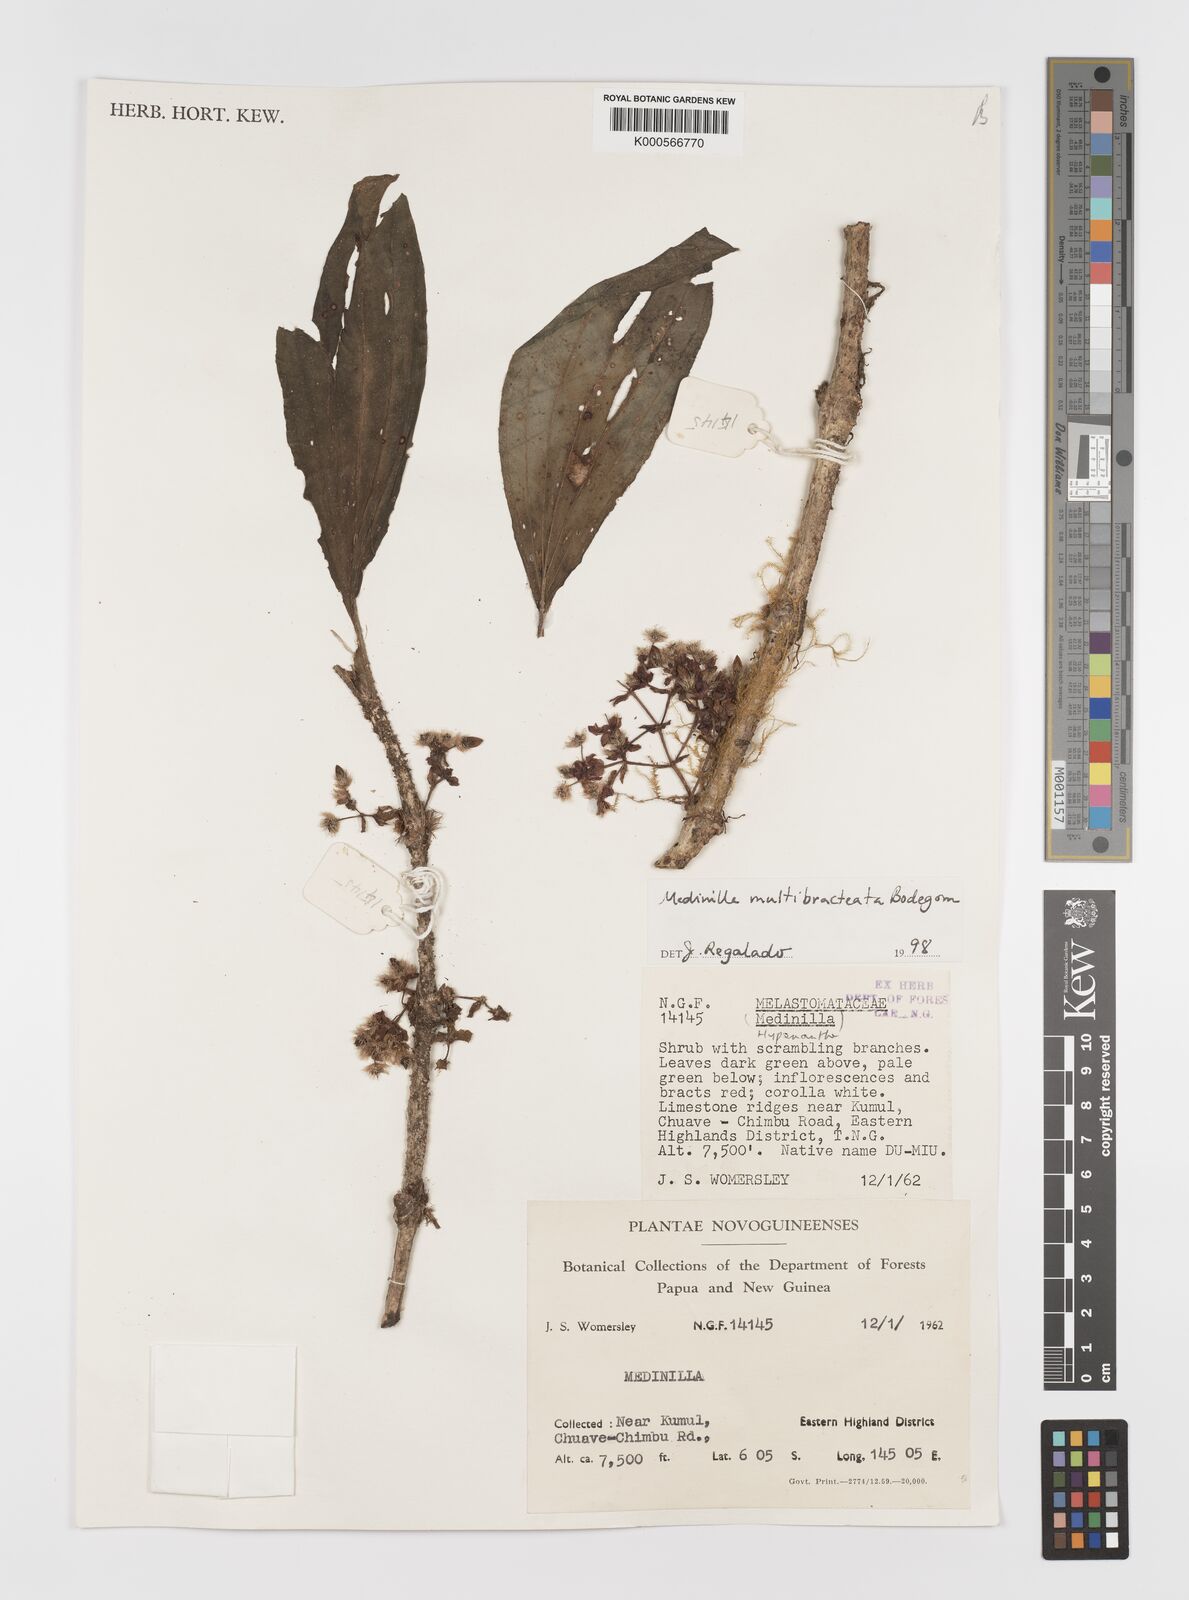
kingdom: Plantae
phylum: Tracheophyta
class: Magnoliopsida
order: Myrtales
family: Melastomataceae
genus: Medinilla
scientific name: Medinilla multibracteata
